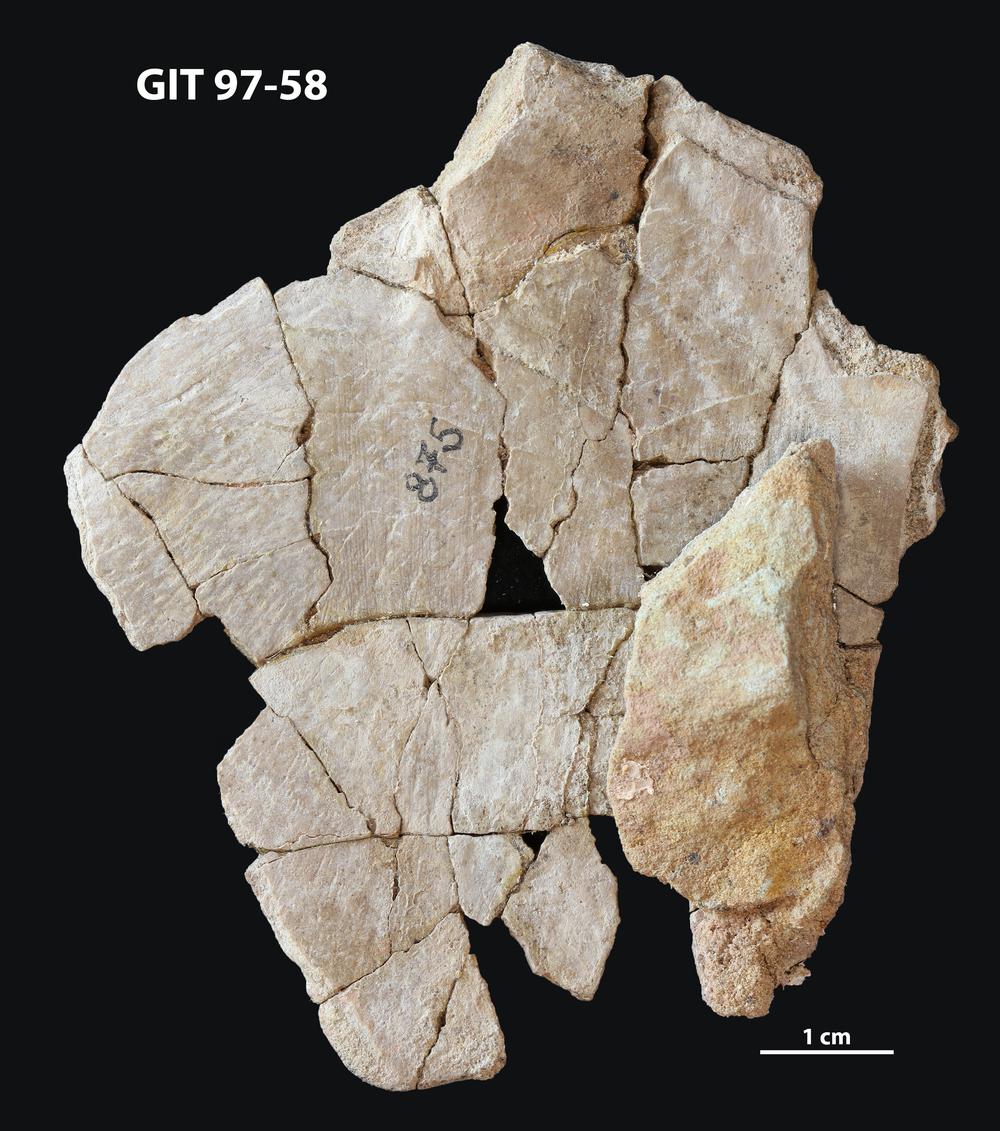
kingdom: Animalia
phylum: Chordata
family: Holonematidae
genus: Holonema
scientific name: Holonema
